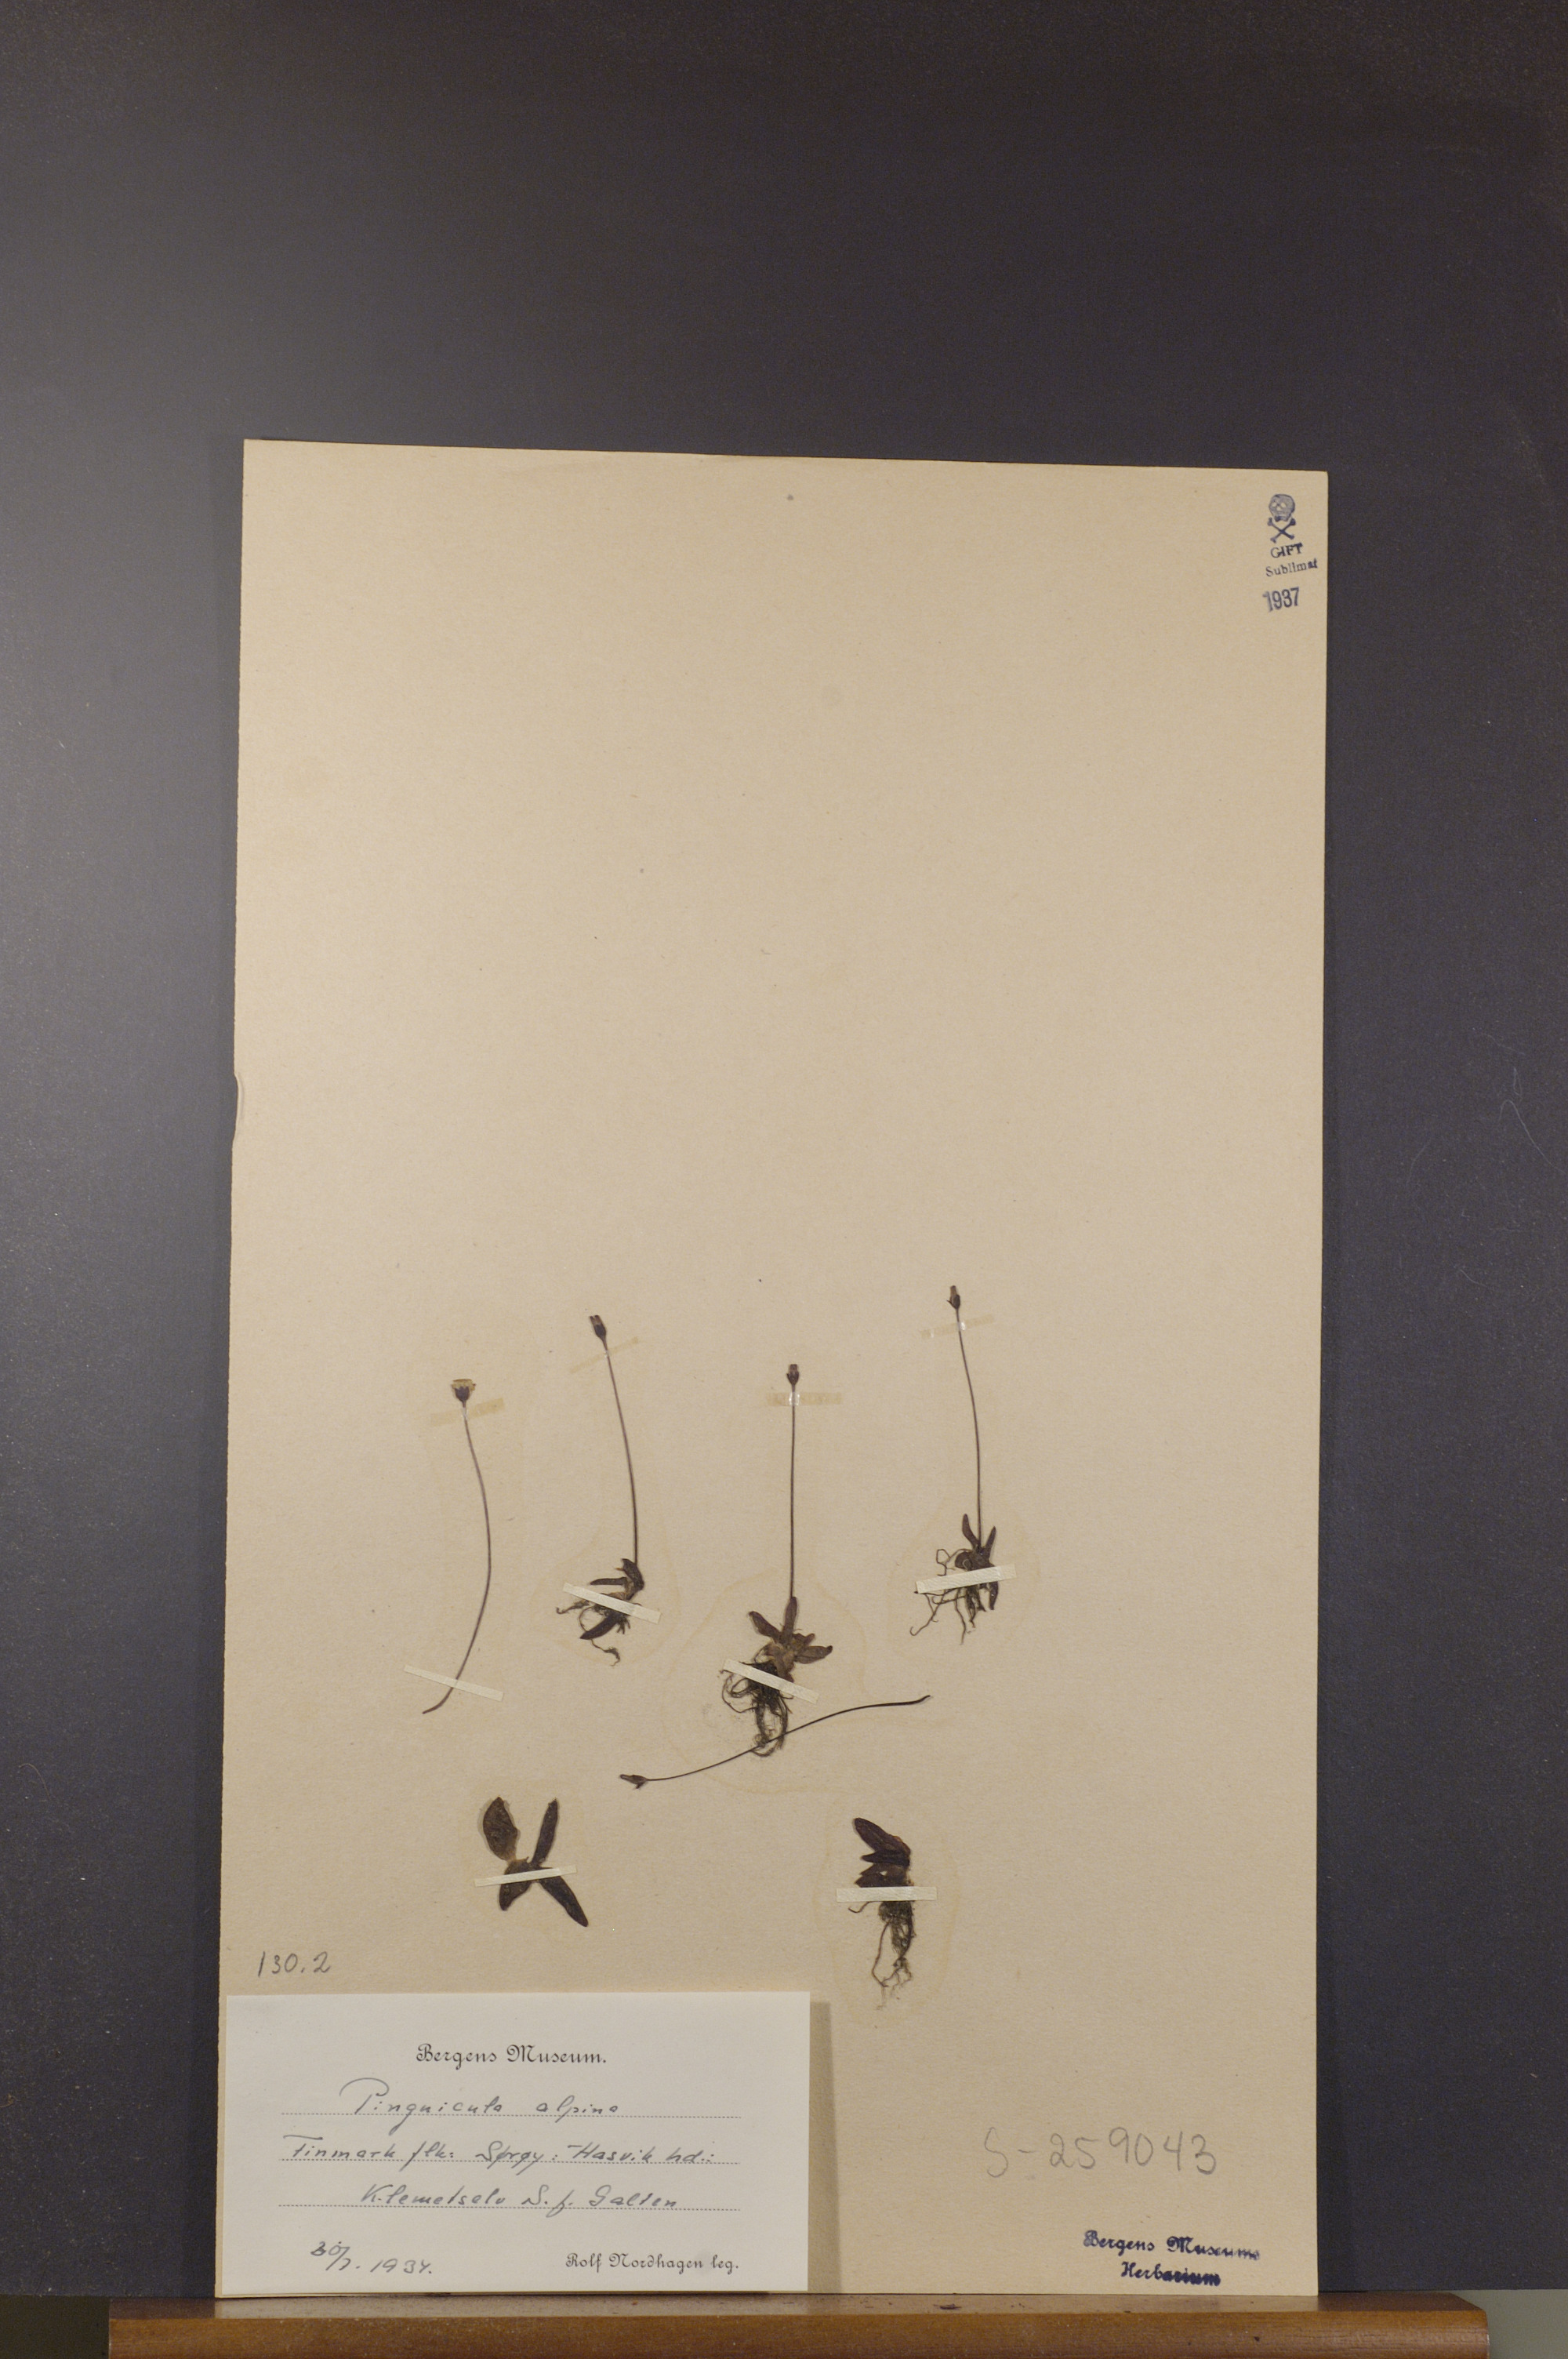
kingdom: Plantae
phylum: Tracheophyta
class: Magnoliopsida
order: Lamiales
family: Lentibulariaceae
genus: Pinguicula
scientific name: Pinguicula alpina
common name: Alpine butterwort
